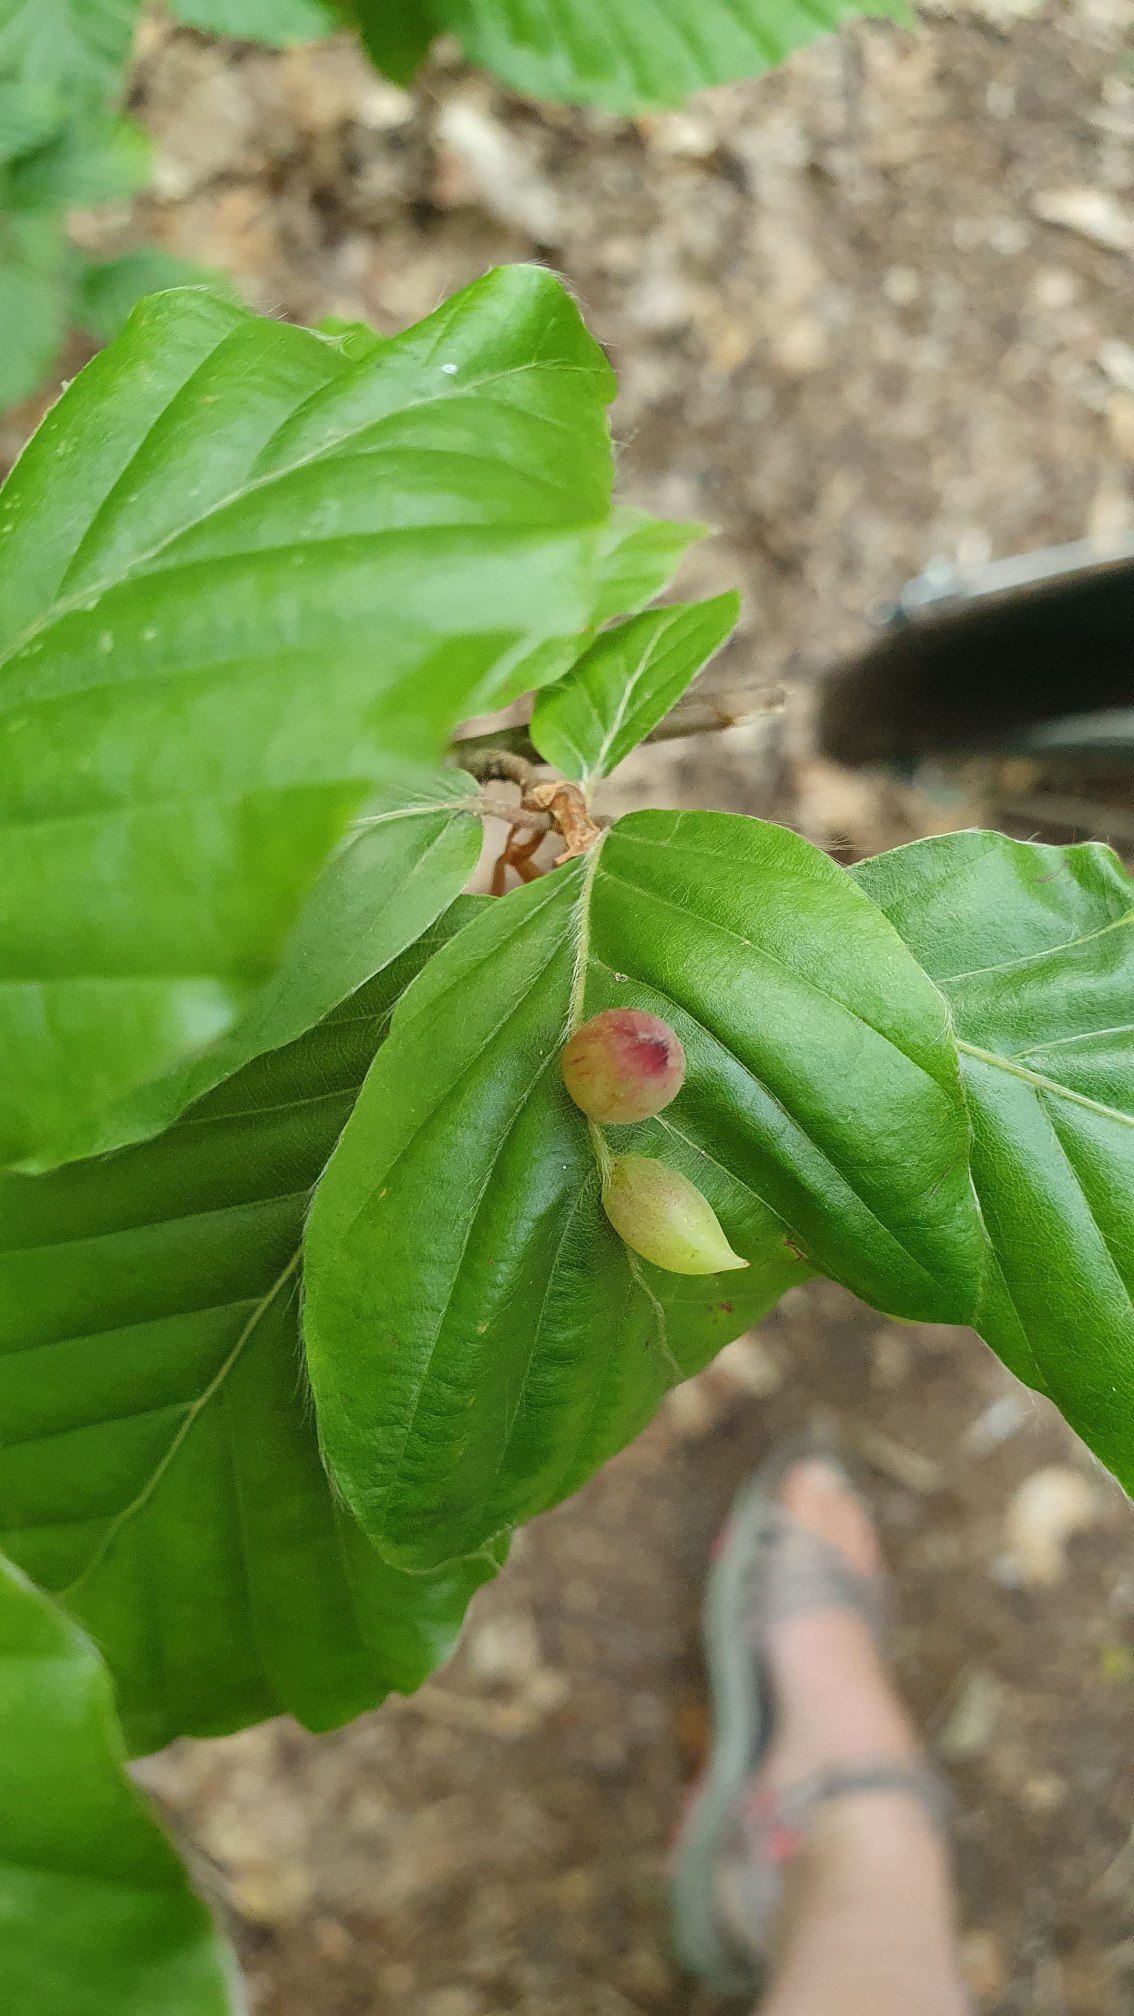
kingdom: Animalia
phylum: Arthropoda
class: Insecta
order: Diptera
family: Cecidomyiidae
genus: Mikiola
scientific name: Mikiola fagi
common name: Bøgegalmyg
